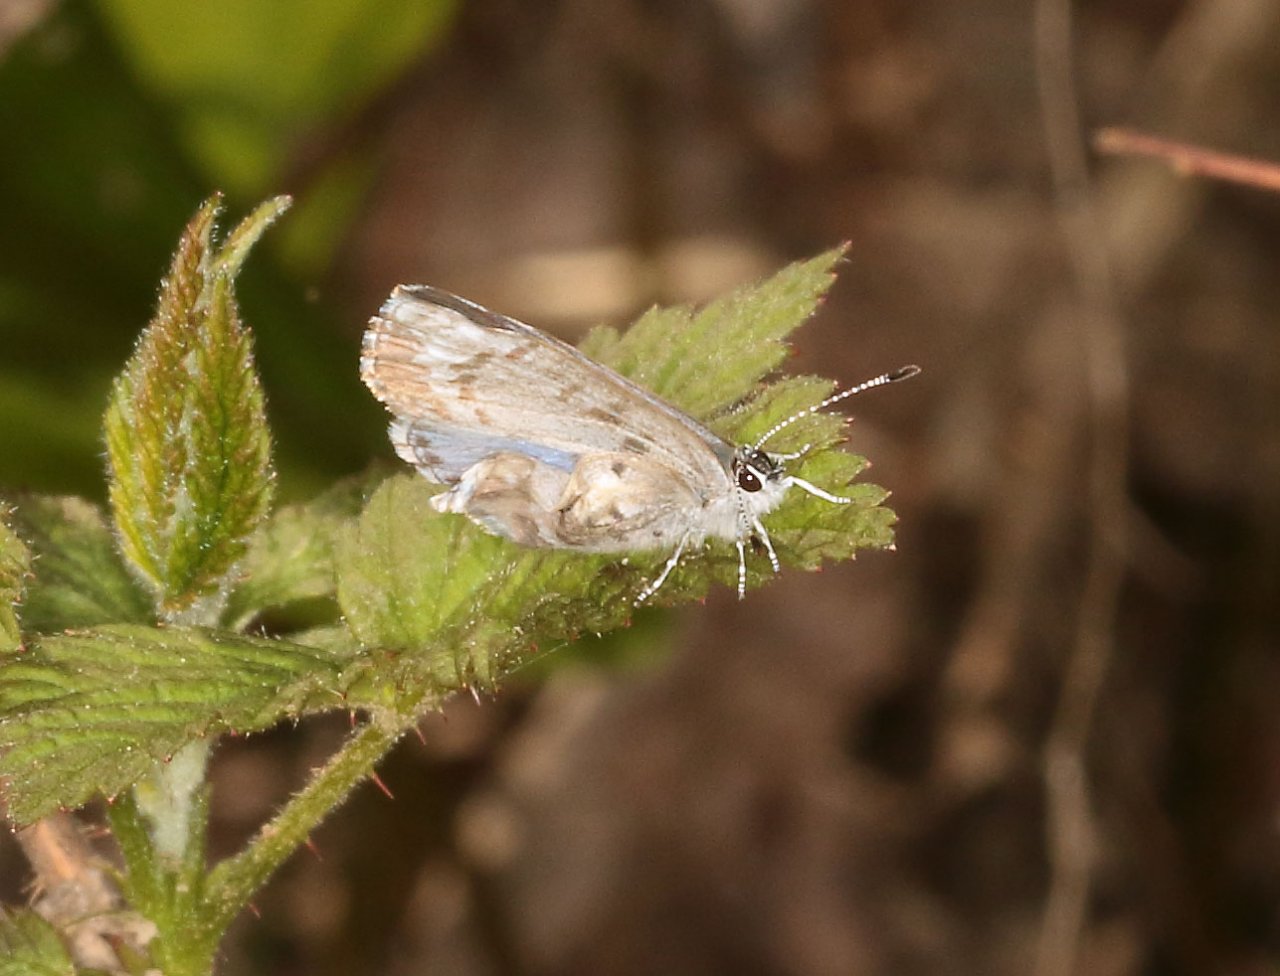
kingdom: Animalia
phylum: Arthropoda
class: Insecta
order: Lepidoptera
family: Lycaenidae
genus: Celastrina
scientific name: Celastrina
